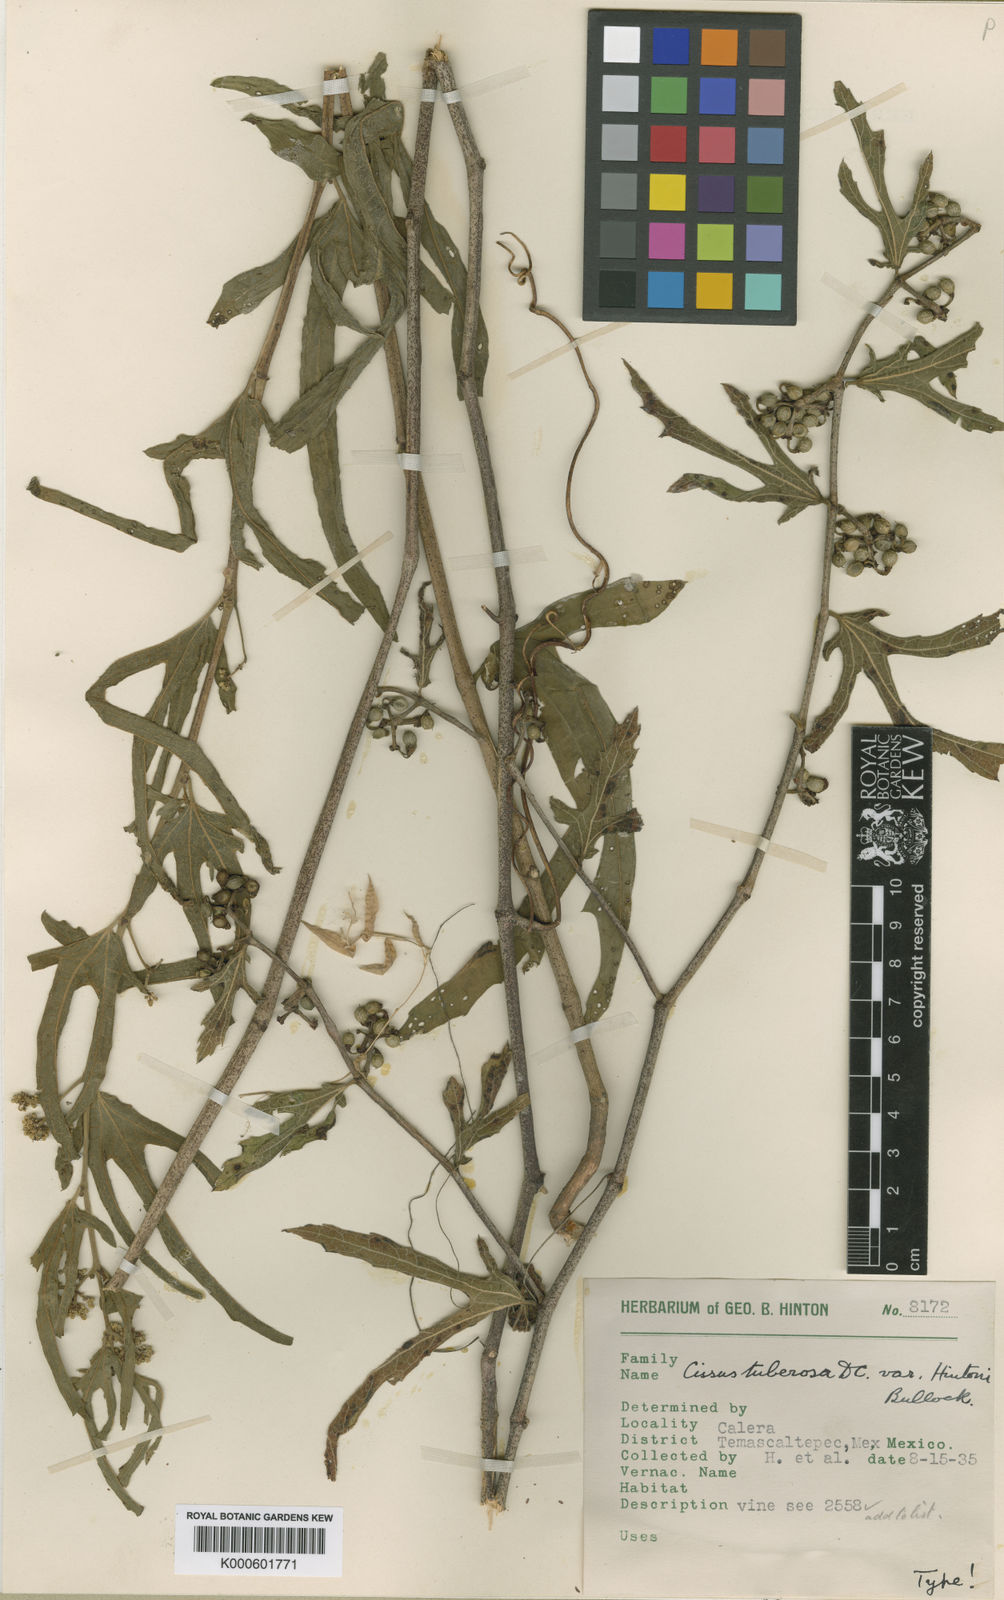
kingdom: Plantae
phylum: Tracheophyta
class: Magnoliopsida
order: Vitales
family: Vitaceae
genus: Cissus
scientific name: Cissus tiliacea
